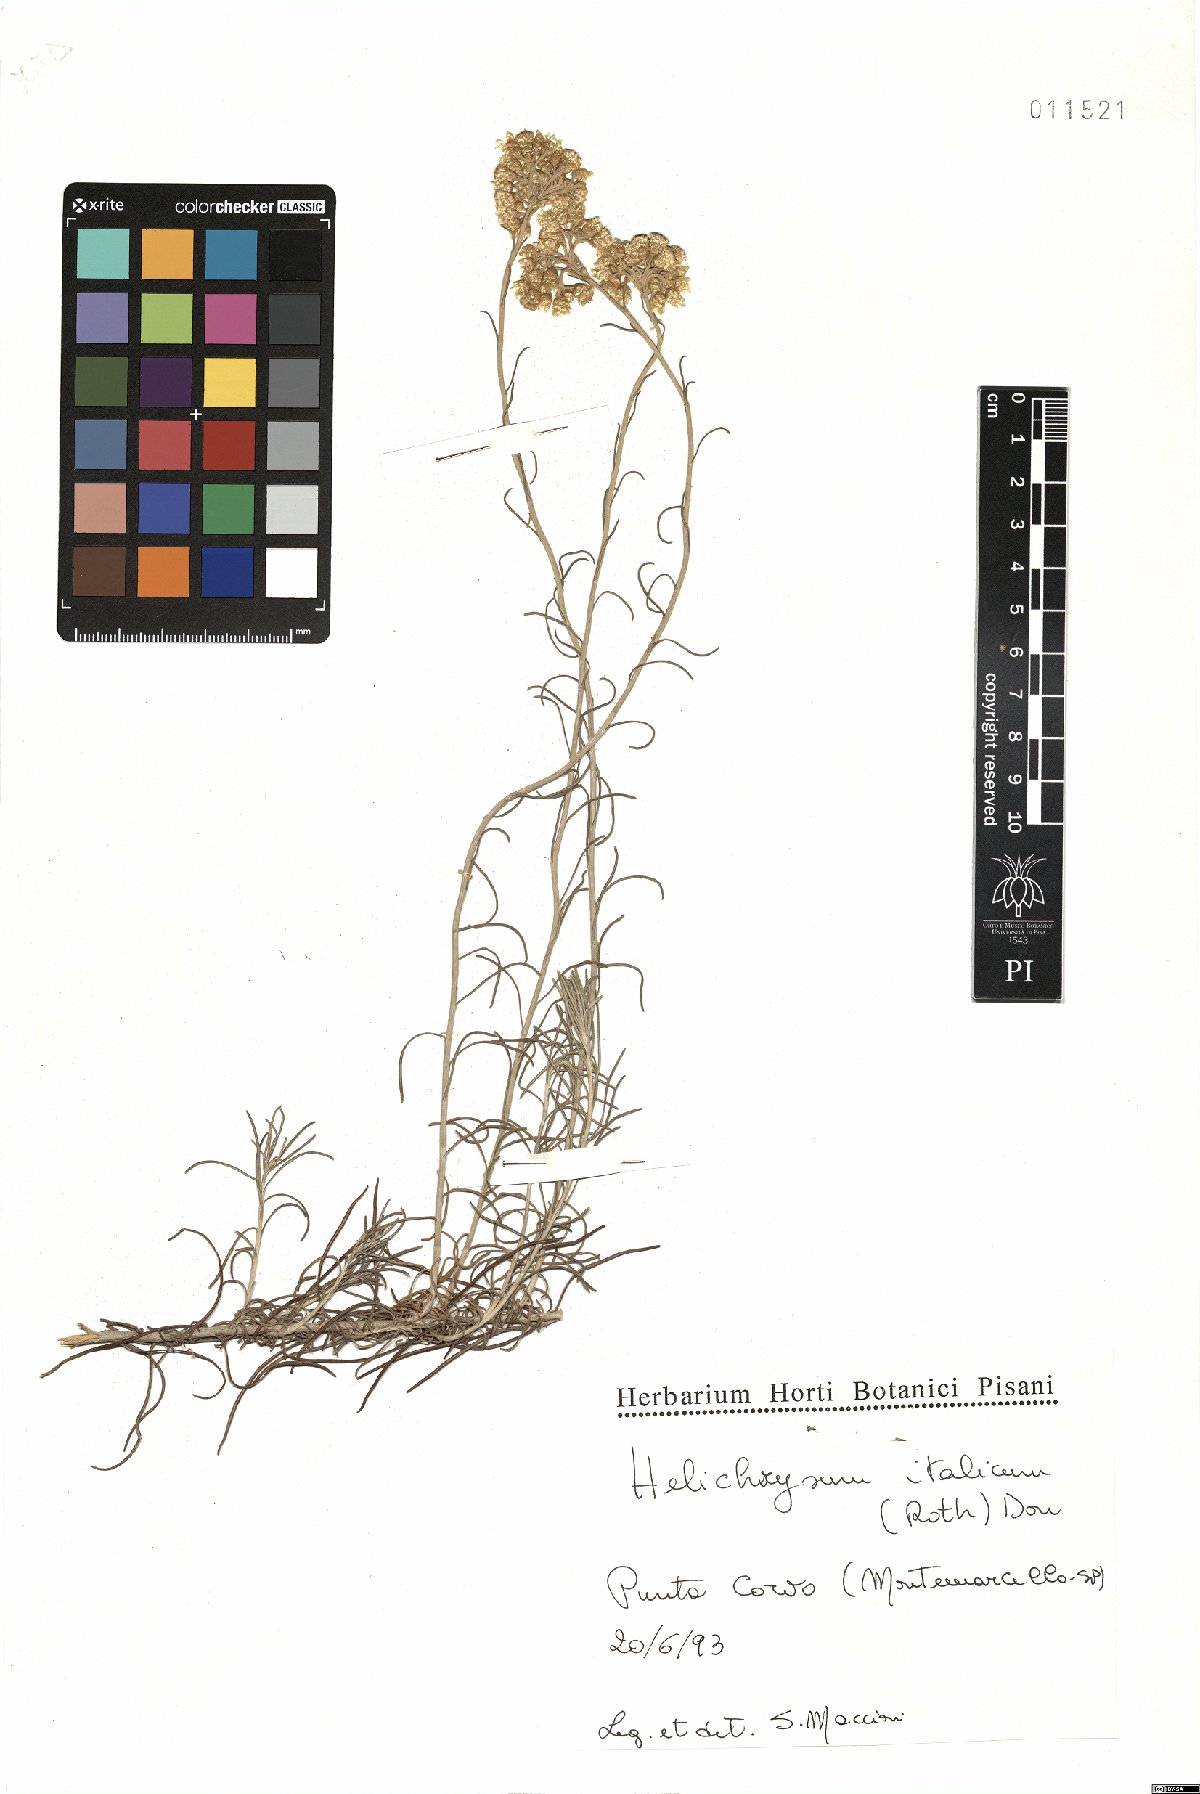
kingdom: Plantae
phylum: Tracheophyta
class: Magnoliopsida
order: Asterales
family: Asteraceae
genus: Helichrysum
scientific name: Helichrysum italicum
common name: Curryplant
